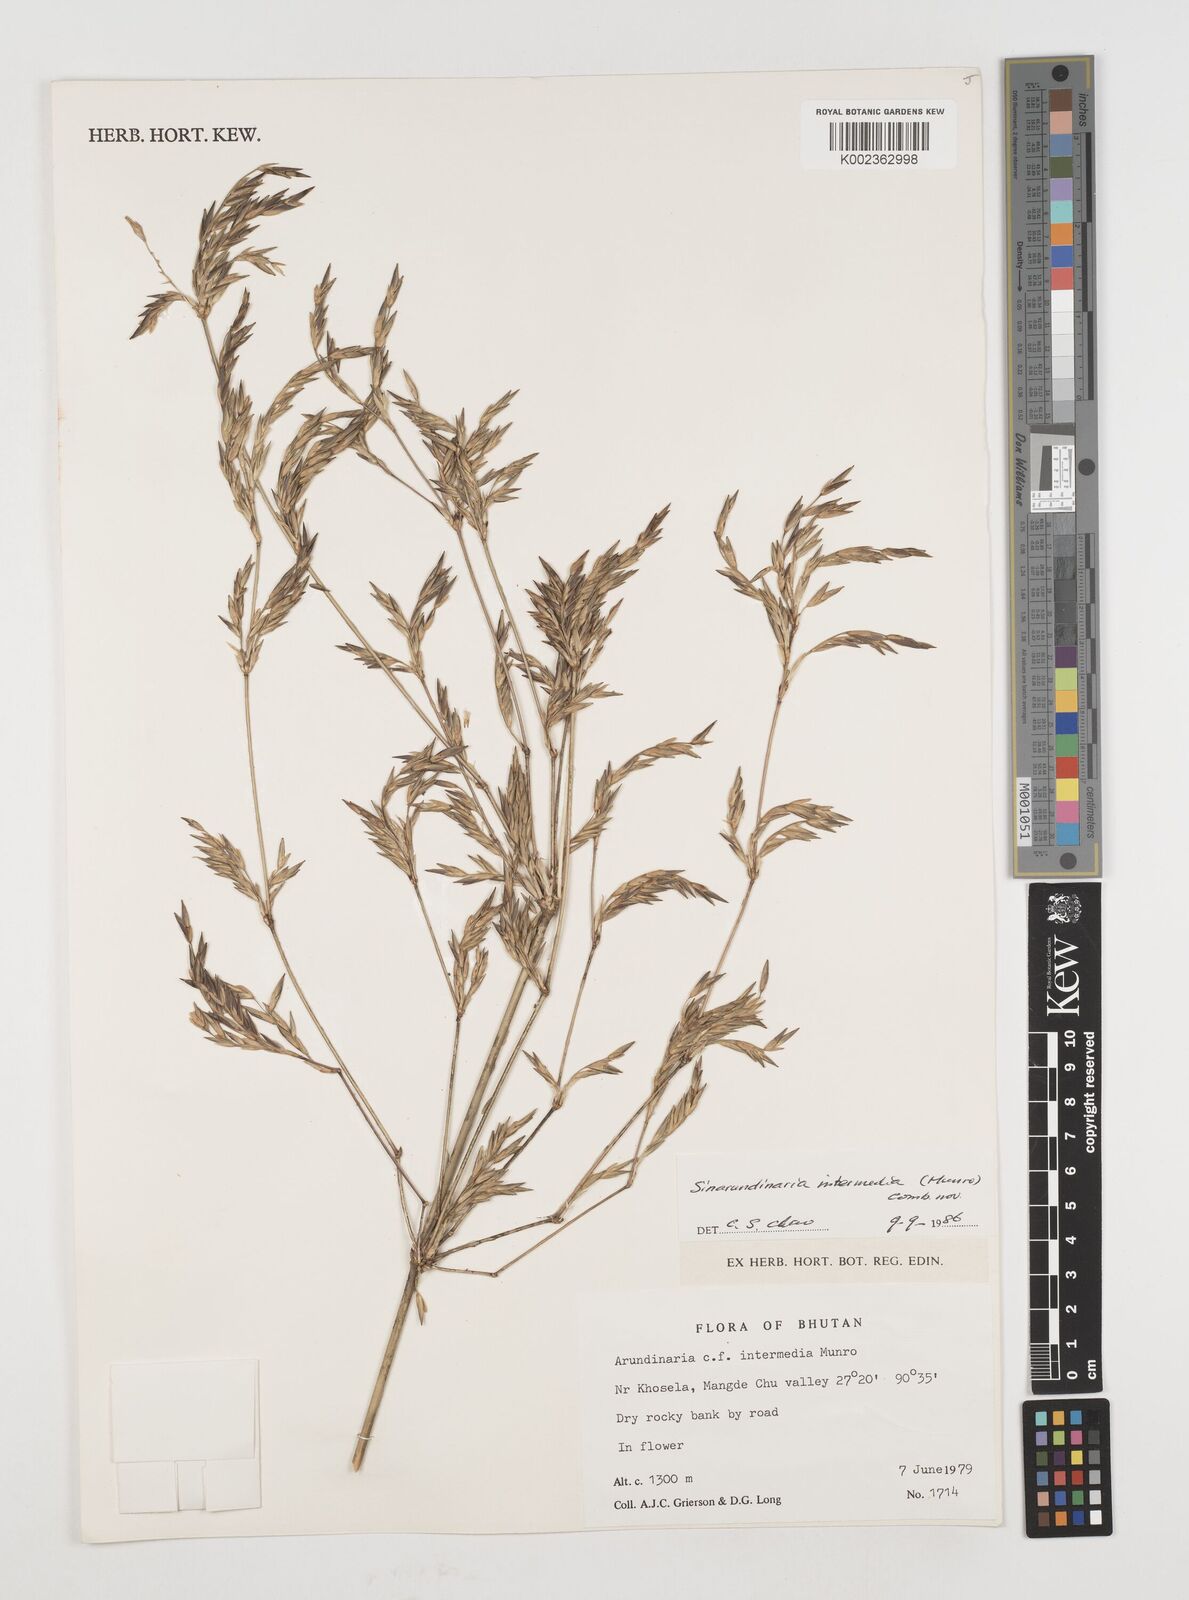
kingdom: Plantae
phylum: Tracheophyta
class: Liliopsida
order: Poales
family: Poaceae
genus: Drepanostachyum
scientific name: Drepanostachyum intermedium
